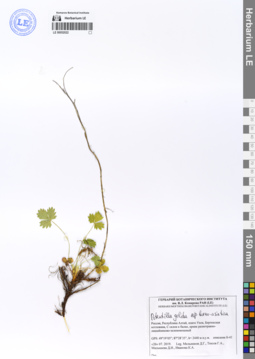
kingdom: Plantae
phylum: Tracheophyta
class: Magnoliopsida
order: Rosales
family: Rosaceae
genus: Potentilla
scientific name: Potentilla crantzii
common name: Alpine cinquefoil
